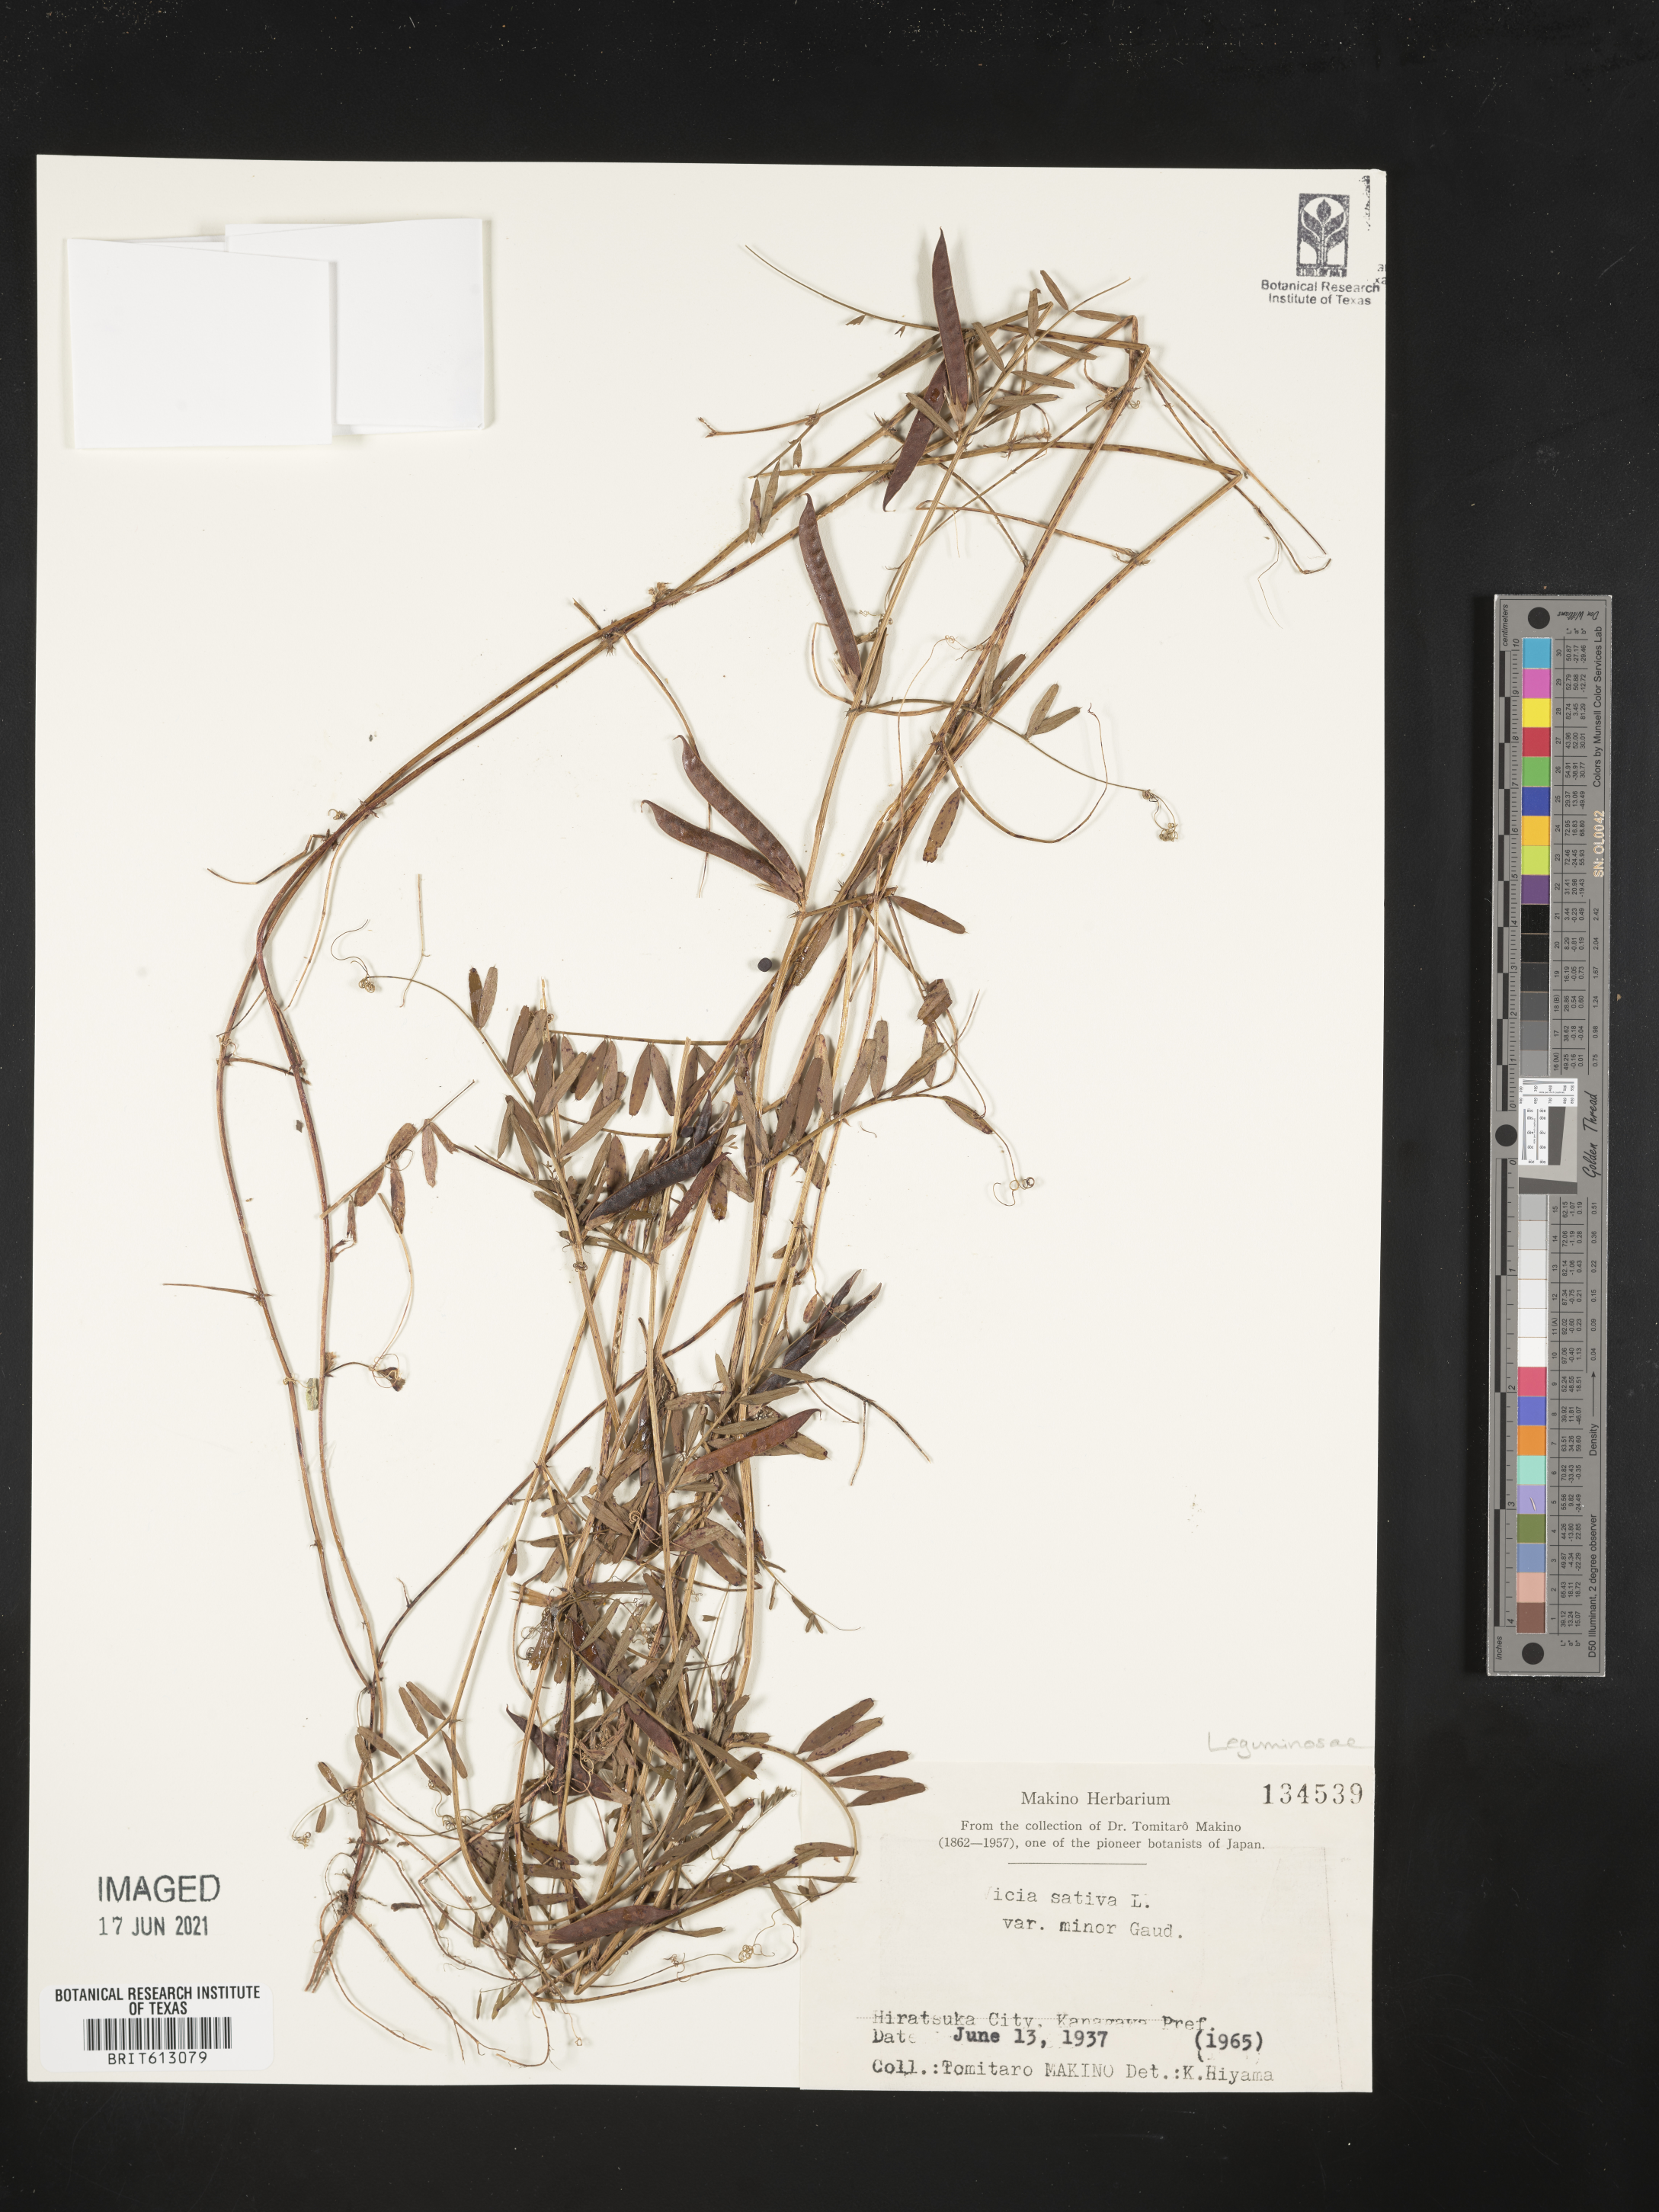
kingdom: Plantae
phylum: Tracheophyta
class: Magnoliopsida
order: Fabales
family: Fabaceae
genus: Vicia
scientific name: Vicia sativa
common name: Garden vetch
